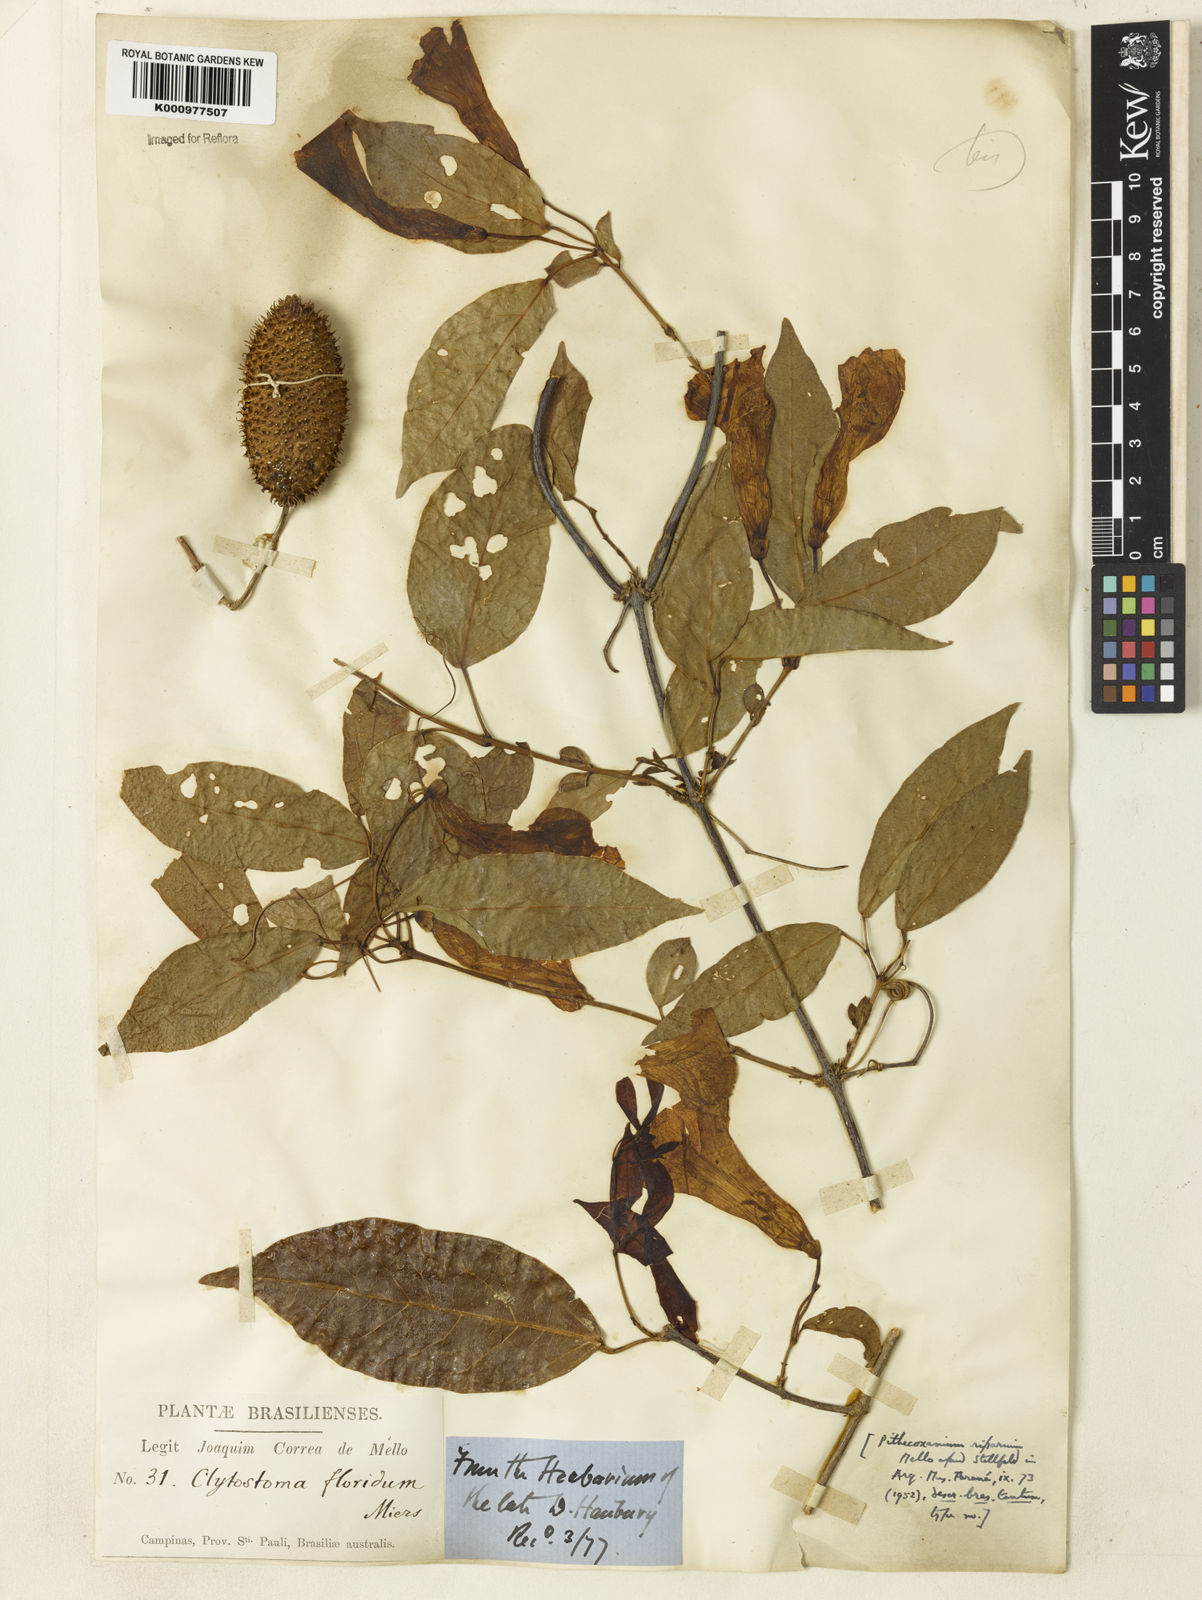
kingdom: Plantae
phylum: Tracheophyta
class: Magnoliopsida
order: Lamiales
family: Bignoniaceae
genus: Bignonia
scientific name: Bignonia binata
